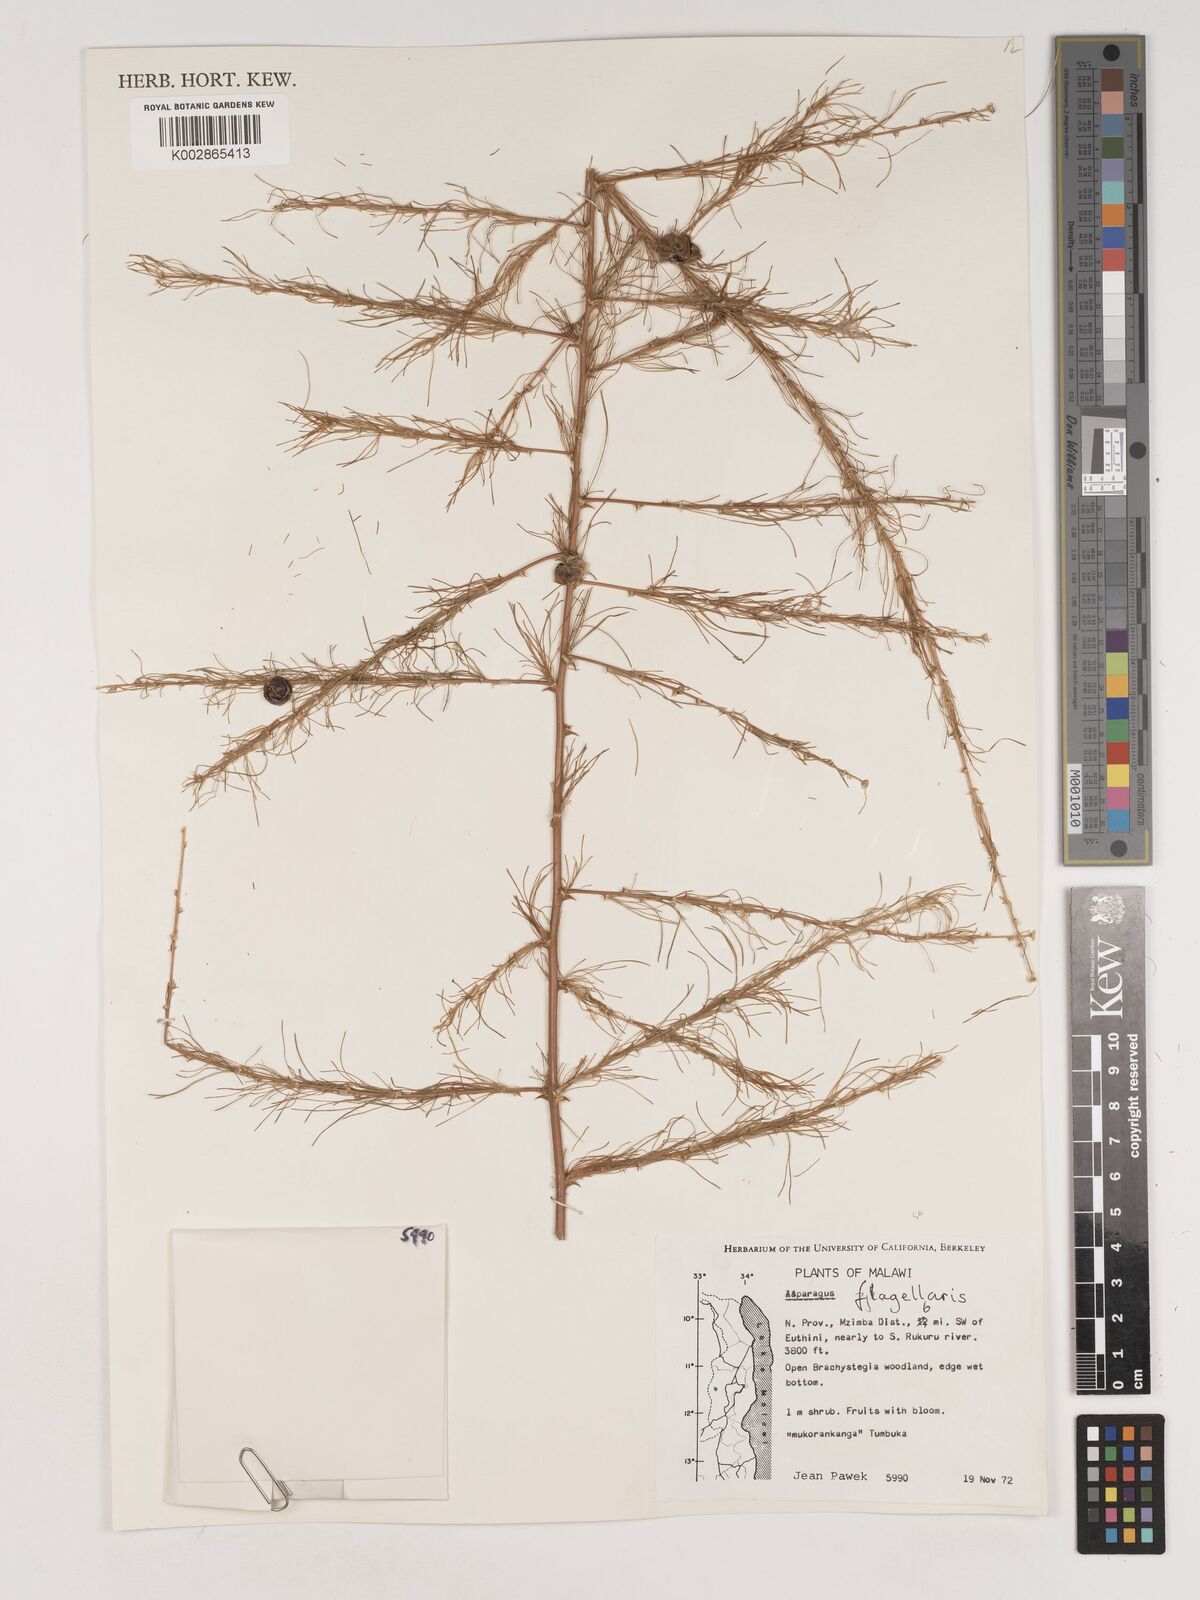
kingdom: Plantae
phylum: Tracheophyta
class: Liliopsida
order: Asparagales
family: Asparagaceae
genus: Asparagus
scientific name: Asparagus flagellaris
